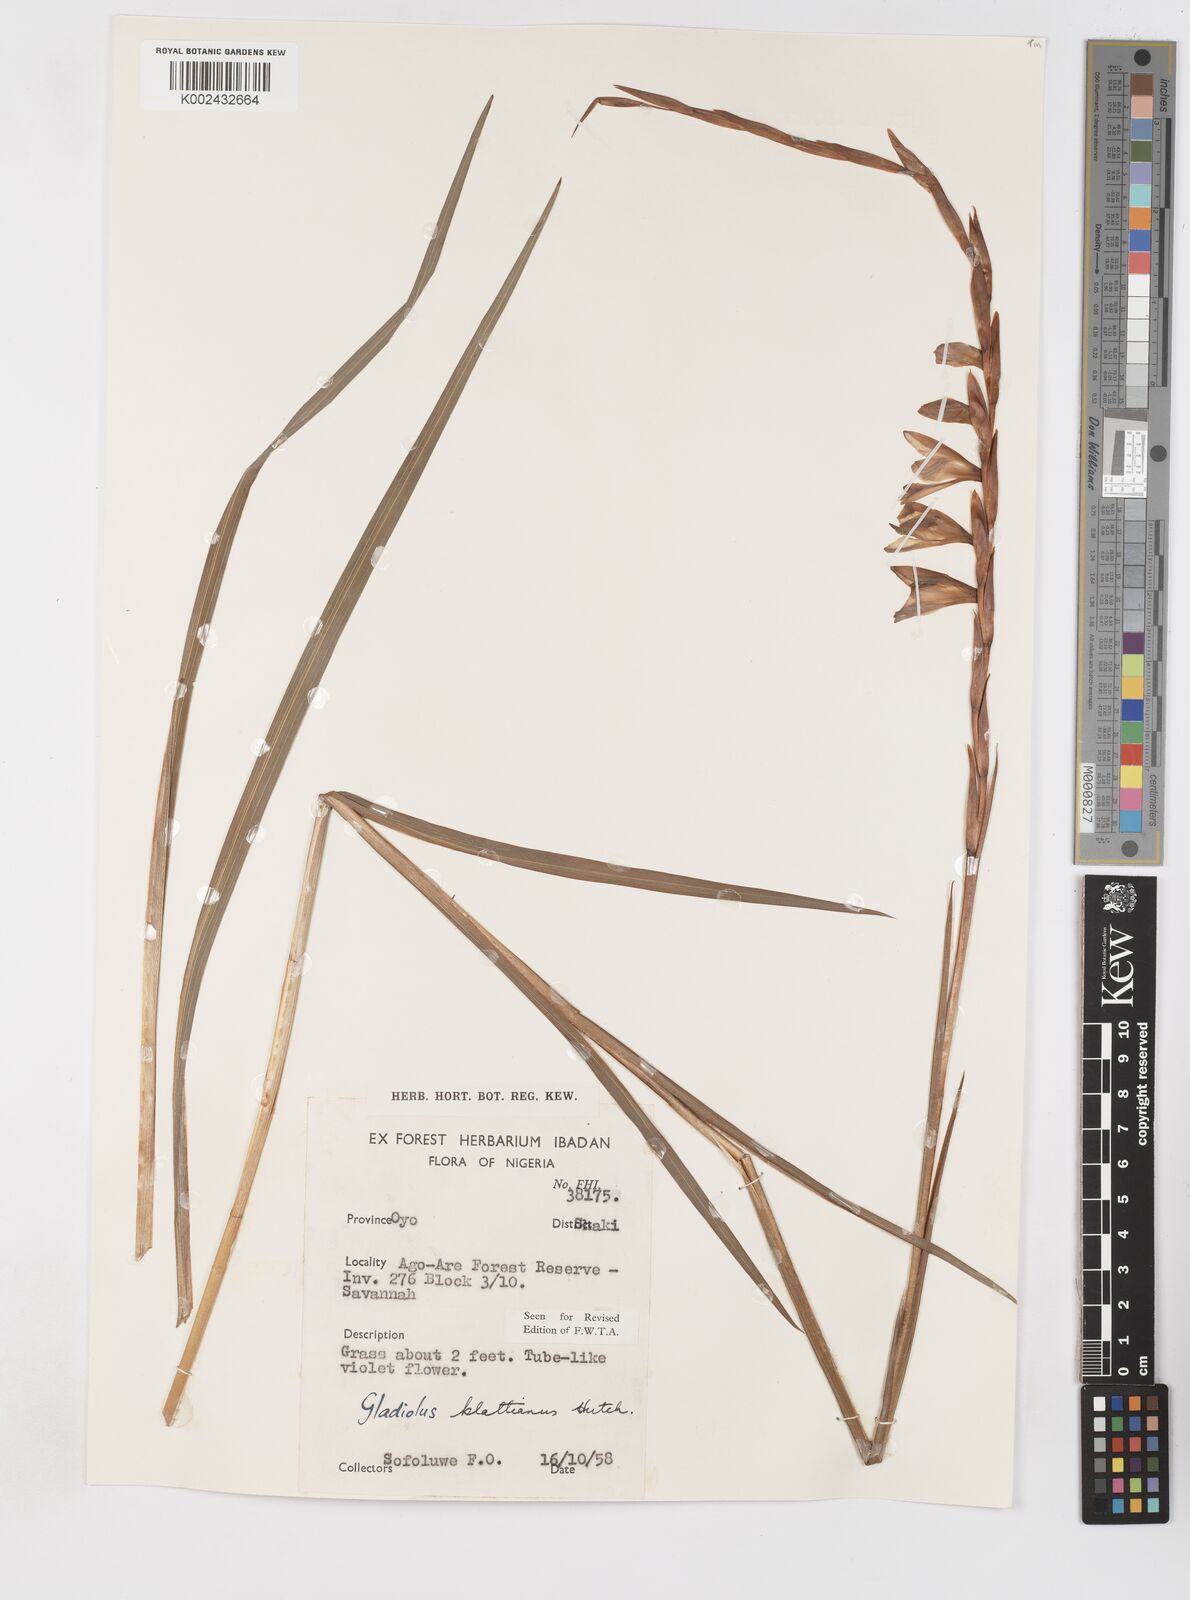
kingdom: Plantae
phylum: Tracheophyta
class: Liliopsida
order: Asparagales
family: Iridaceae
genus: Gladiolus
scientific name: Gladiolus gregarius
